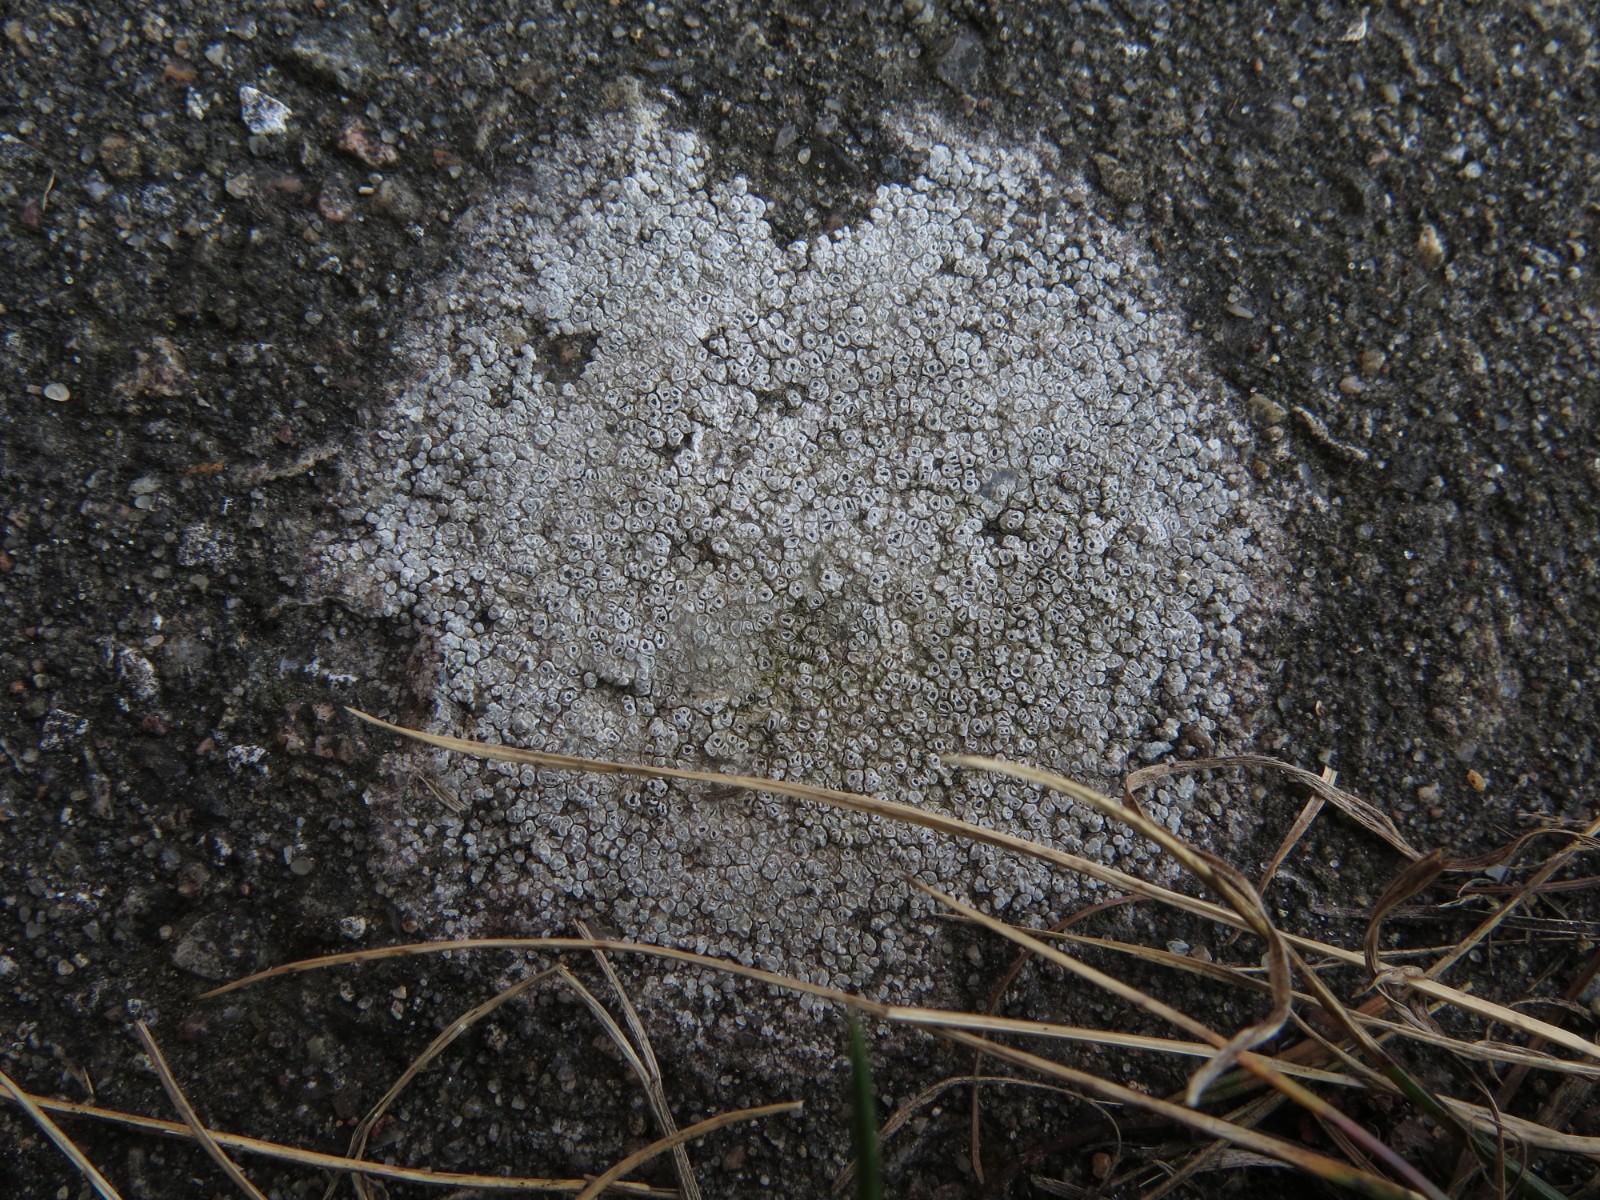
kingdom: Fungi
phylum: Ascomycota
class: Lecanoromycetes
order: Pertusariales
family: Megasporaceae
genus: Circinaria
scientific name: Circinaria contorta
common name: indviklet hulskivelav
